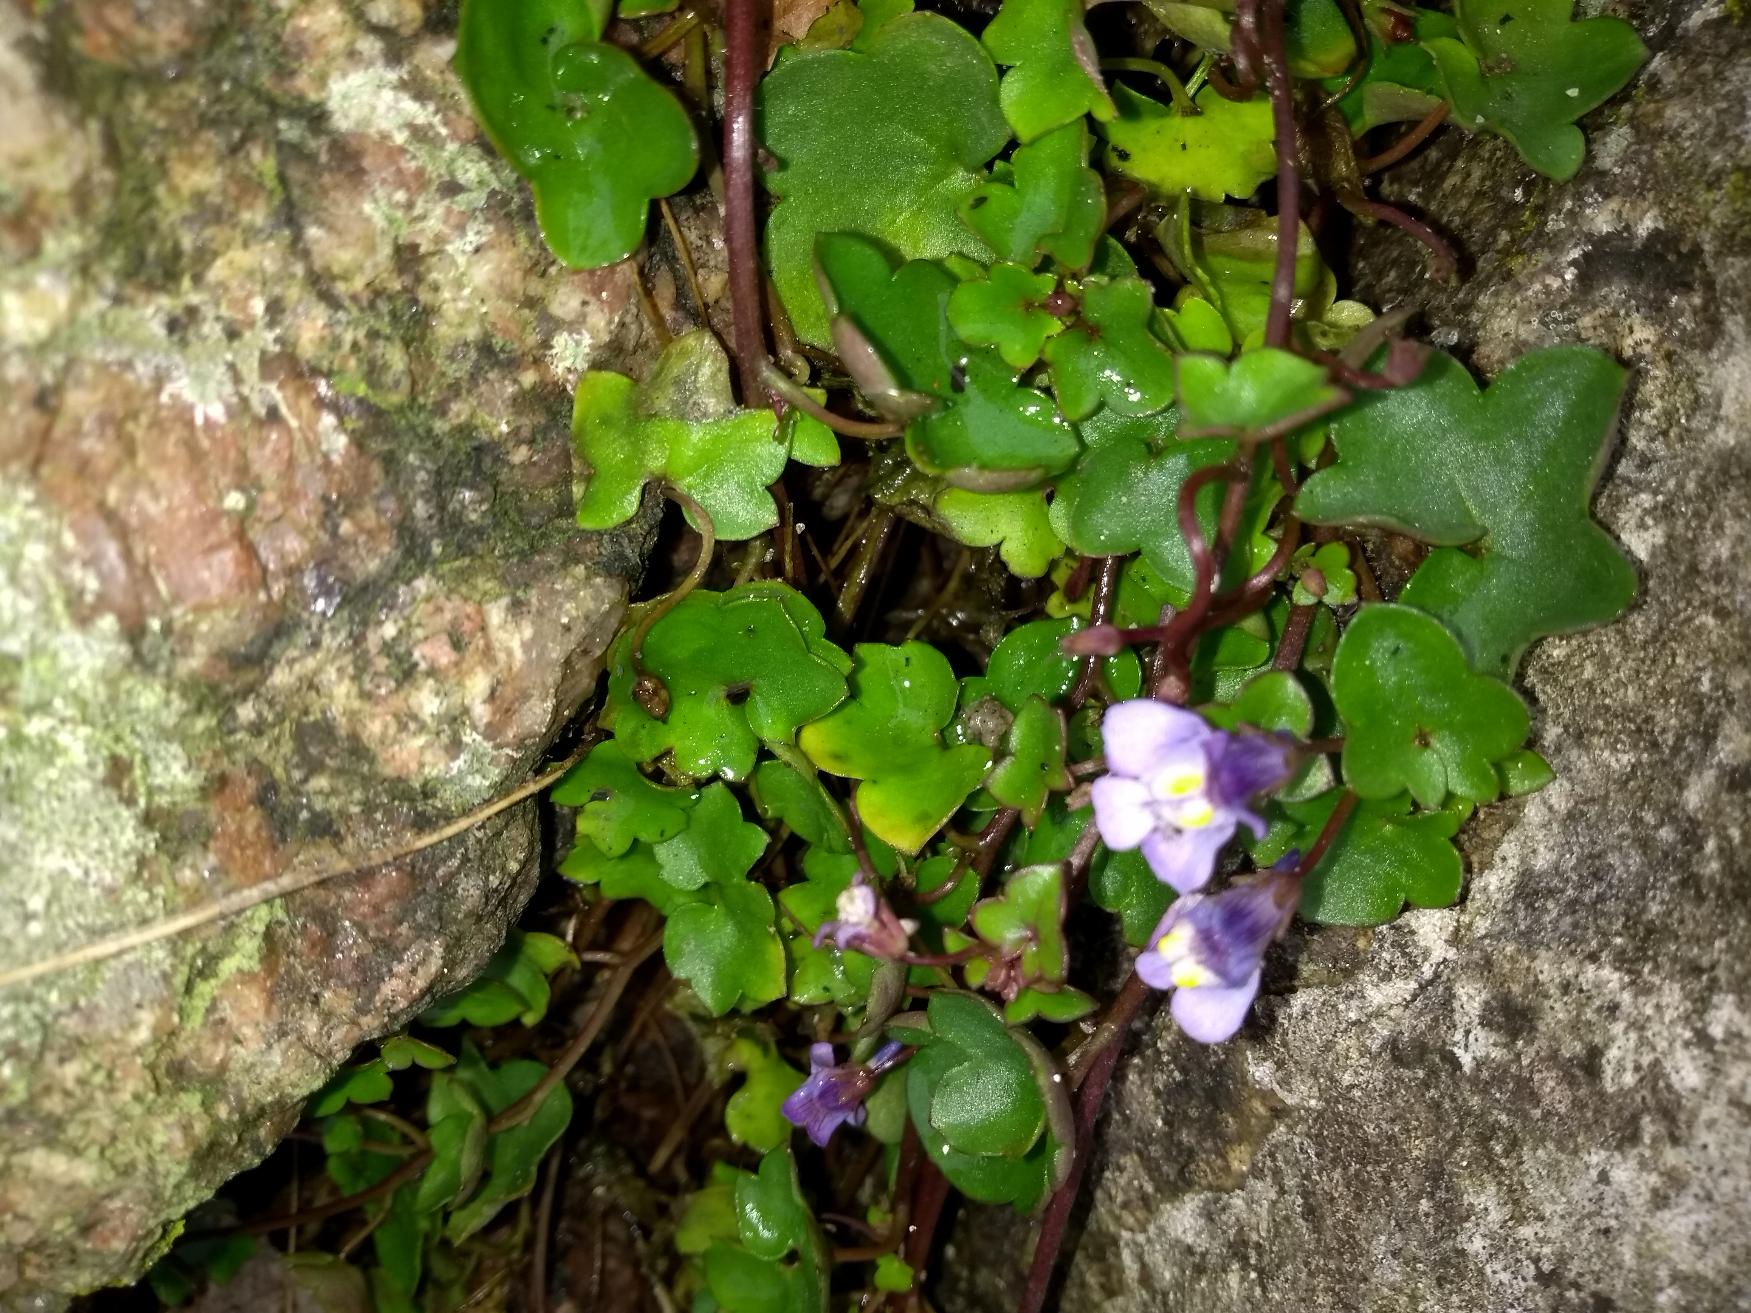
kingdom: Plantae
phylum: Tracheophyta
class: Magnoliopsida
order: Lamiales
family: Plantaginaceae
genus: Cymbalaria
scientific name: Cymbalaria muralis
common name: Vedbend-torskemund
